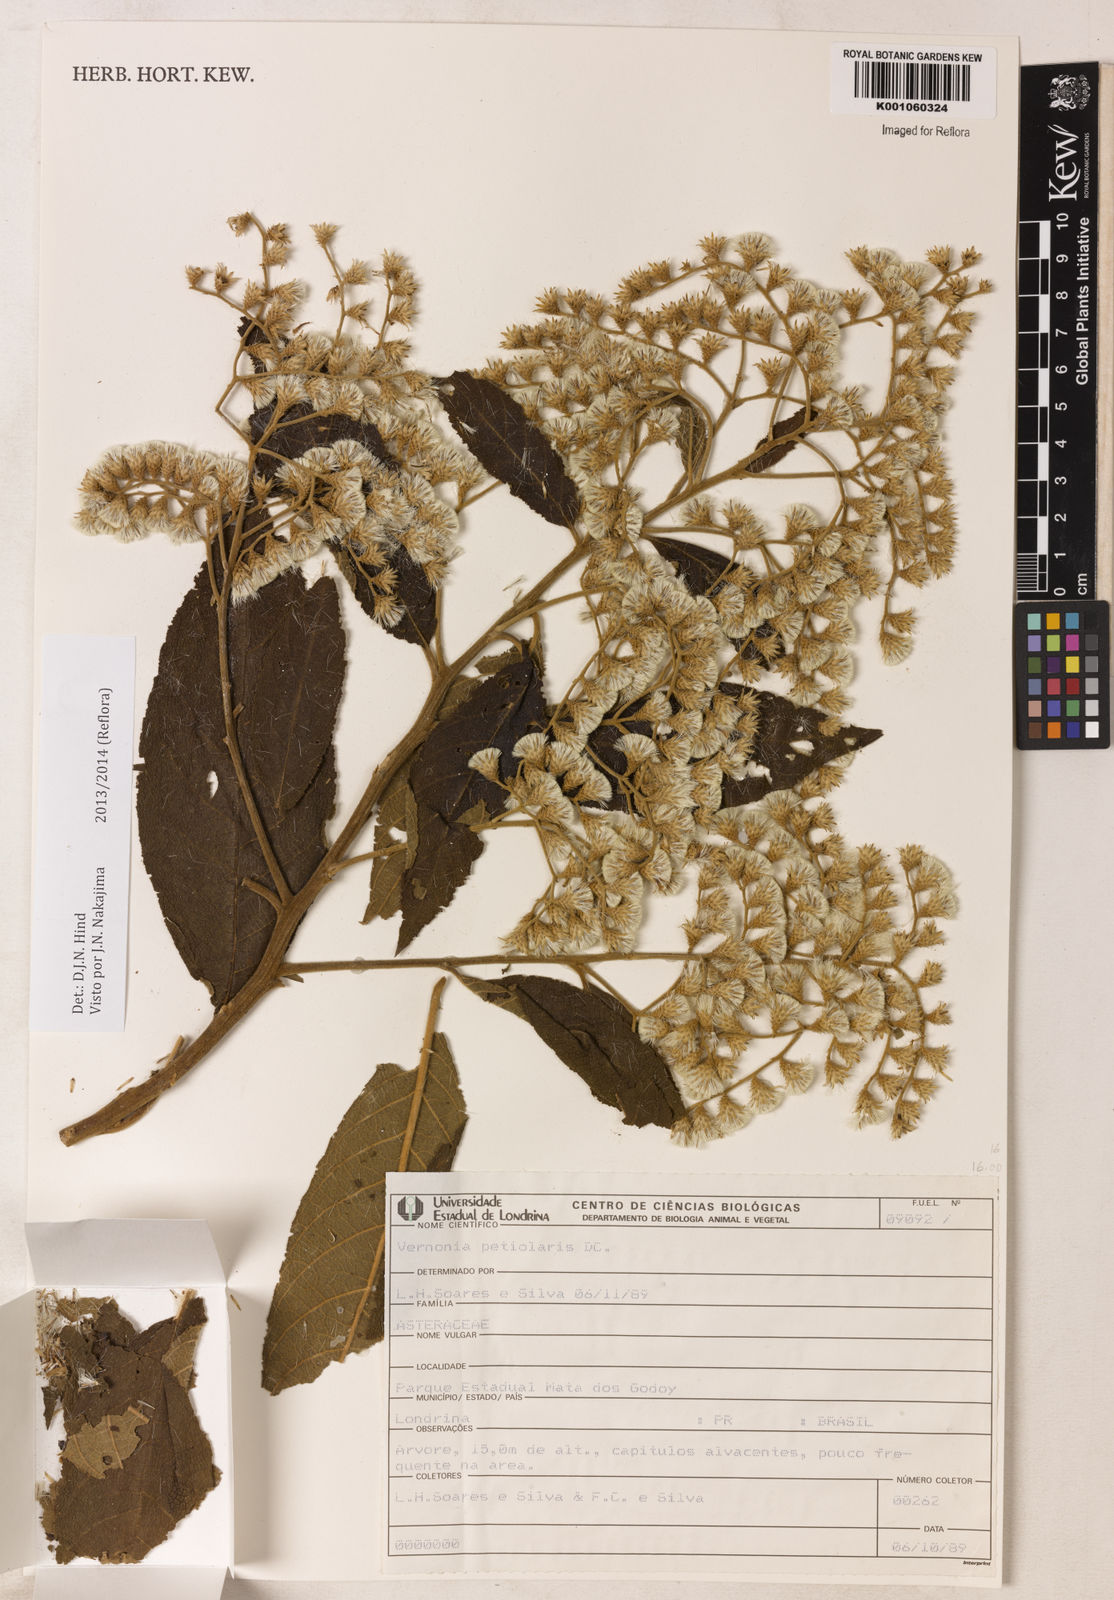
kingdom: Plantae
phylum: Tracheophyta
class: Magnoliopsida
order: Asterales
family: Asteraceae
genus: Vernonanthura
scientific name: Vernonanthura petiolaris
